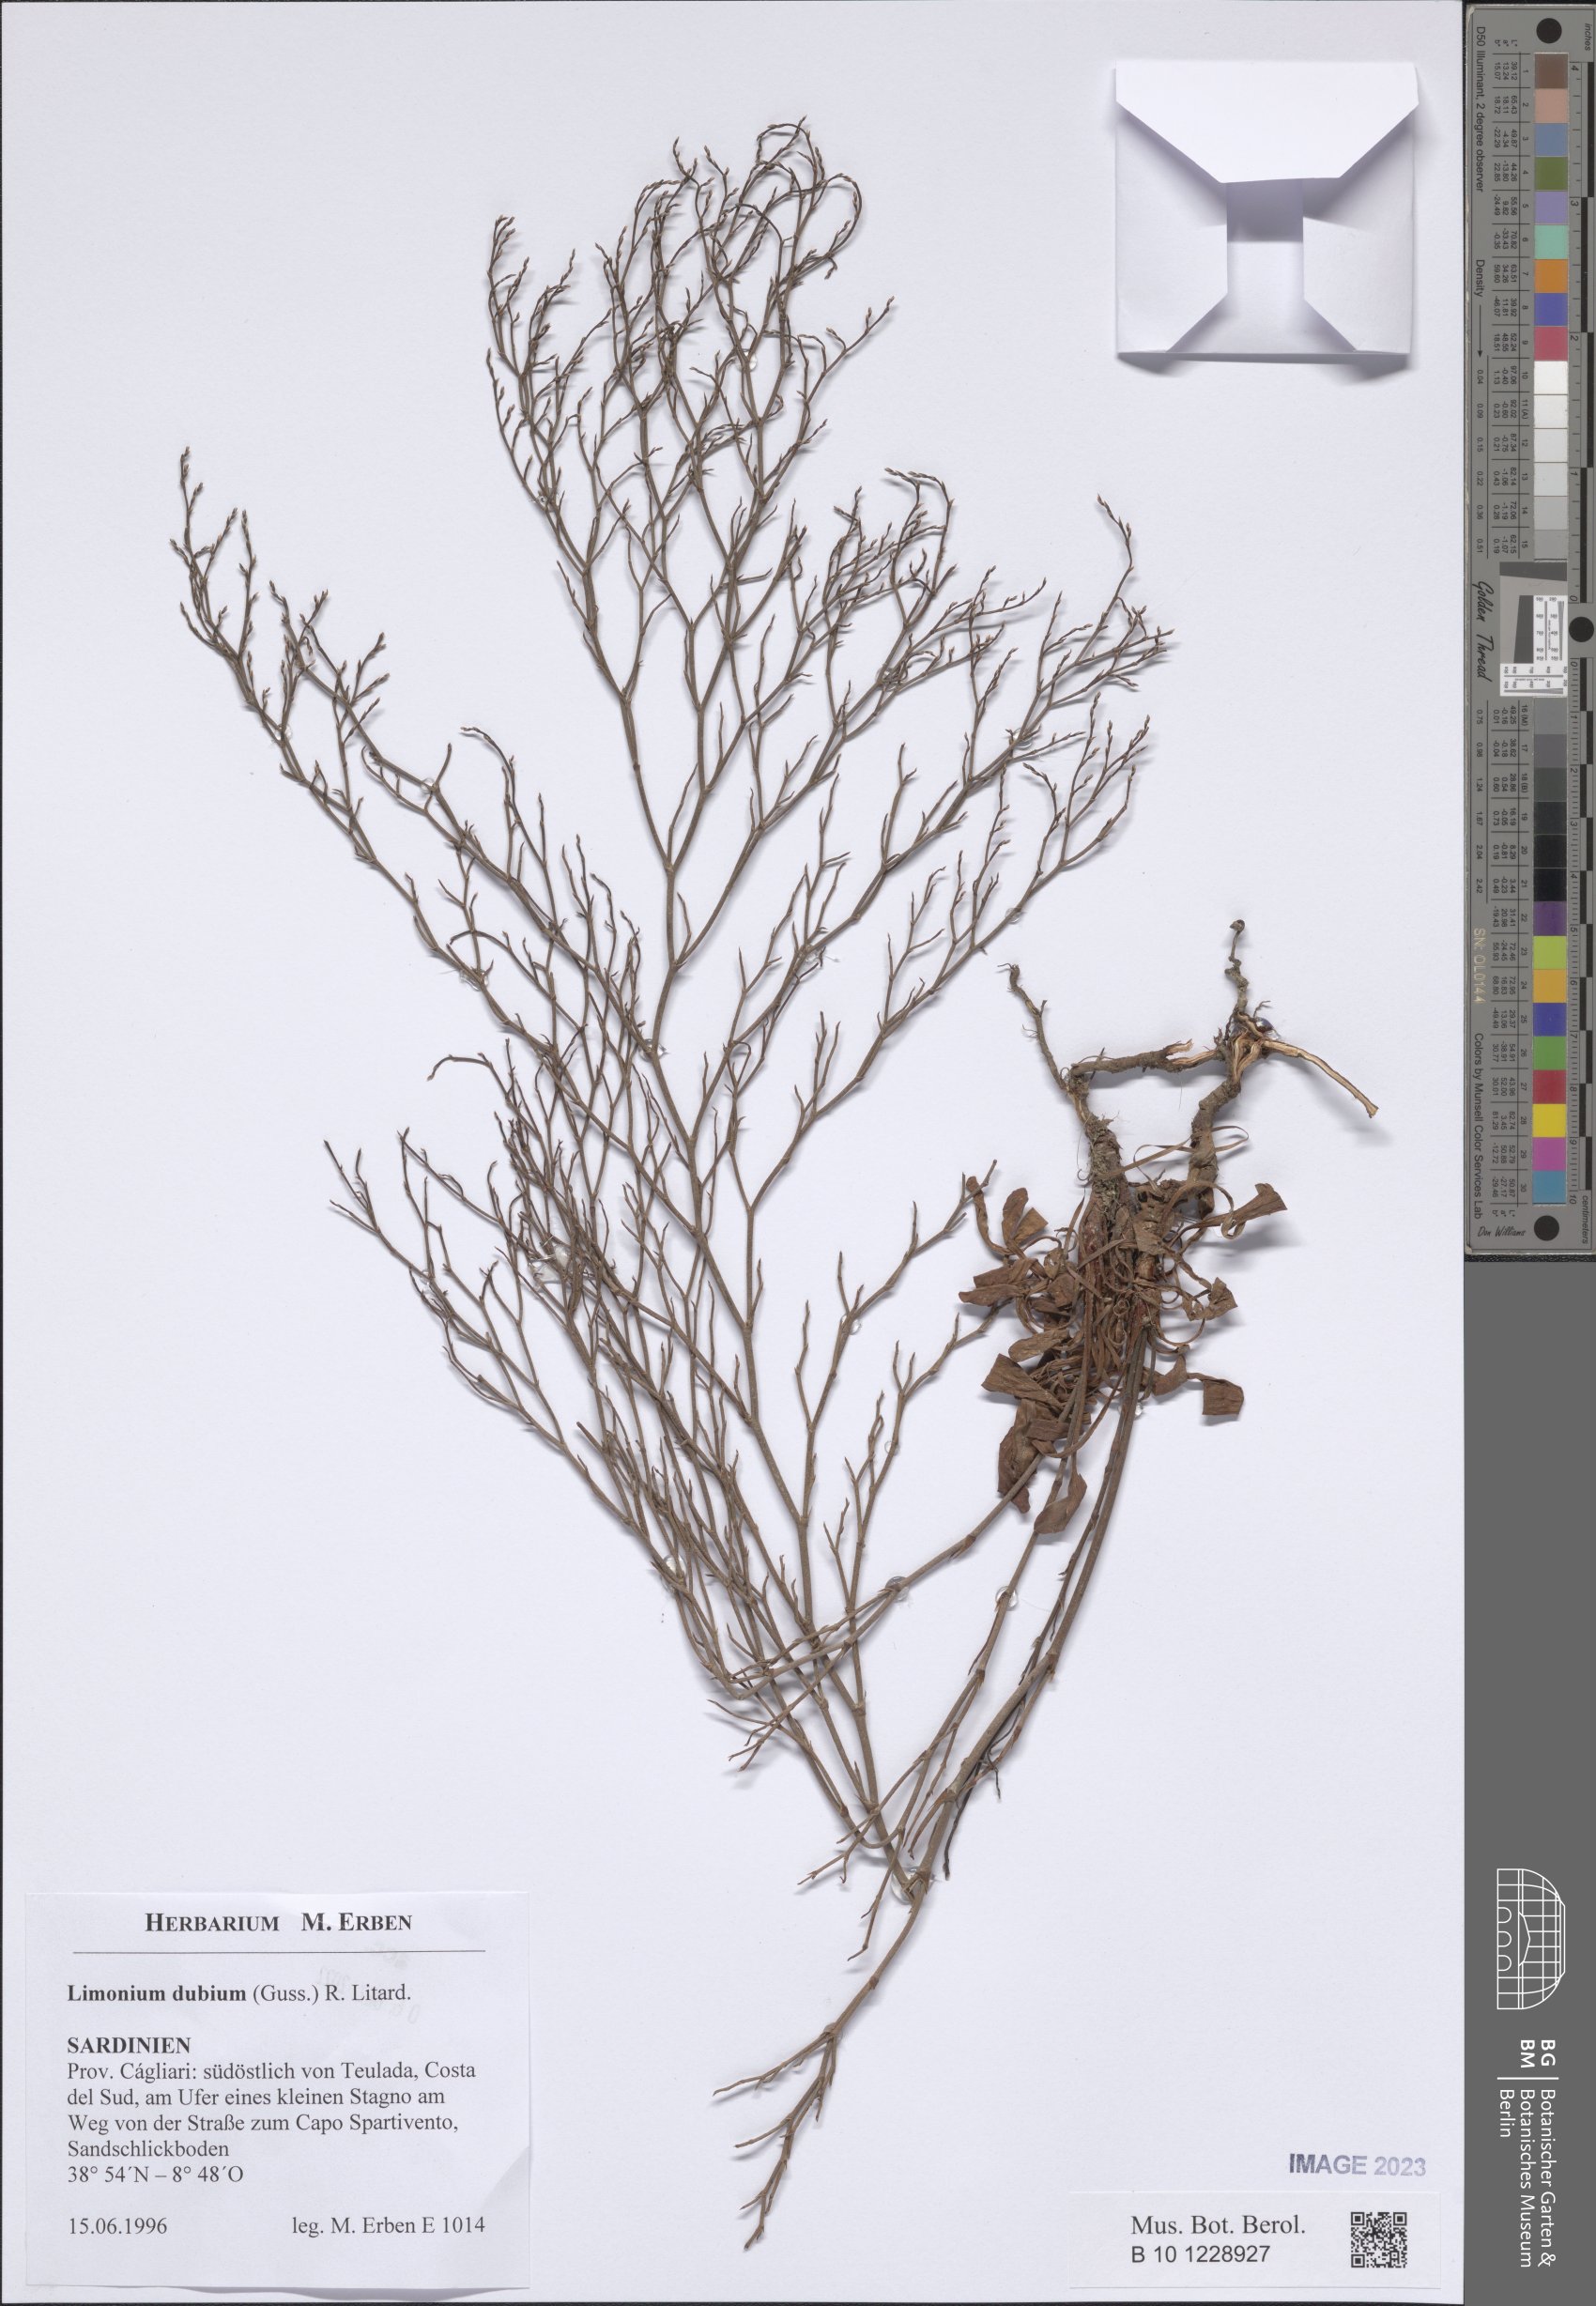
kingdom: Plantae
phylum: Tracheophyta
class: Magnoliopsida
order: Caryophyllales
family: Plumbaginaceae
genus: Limonium
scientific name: Limonium dubium
